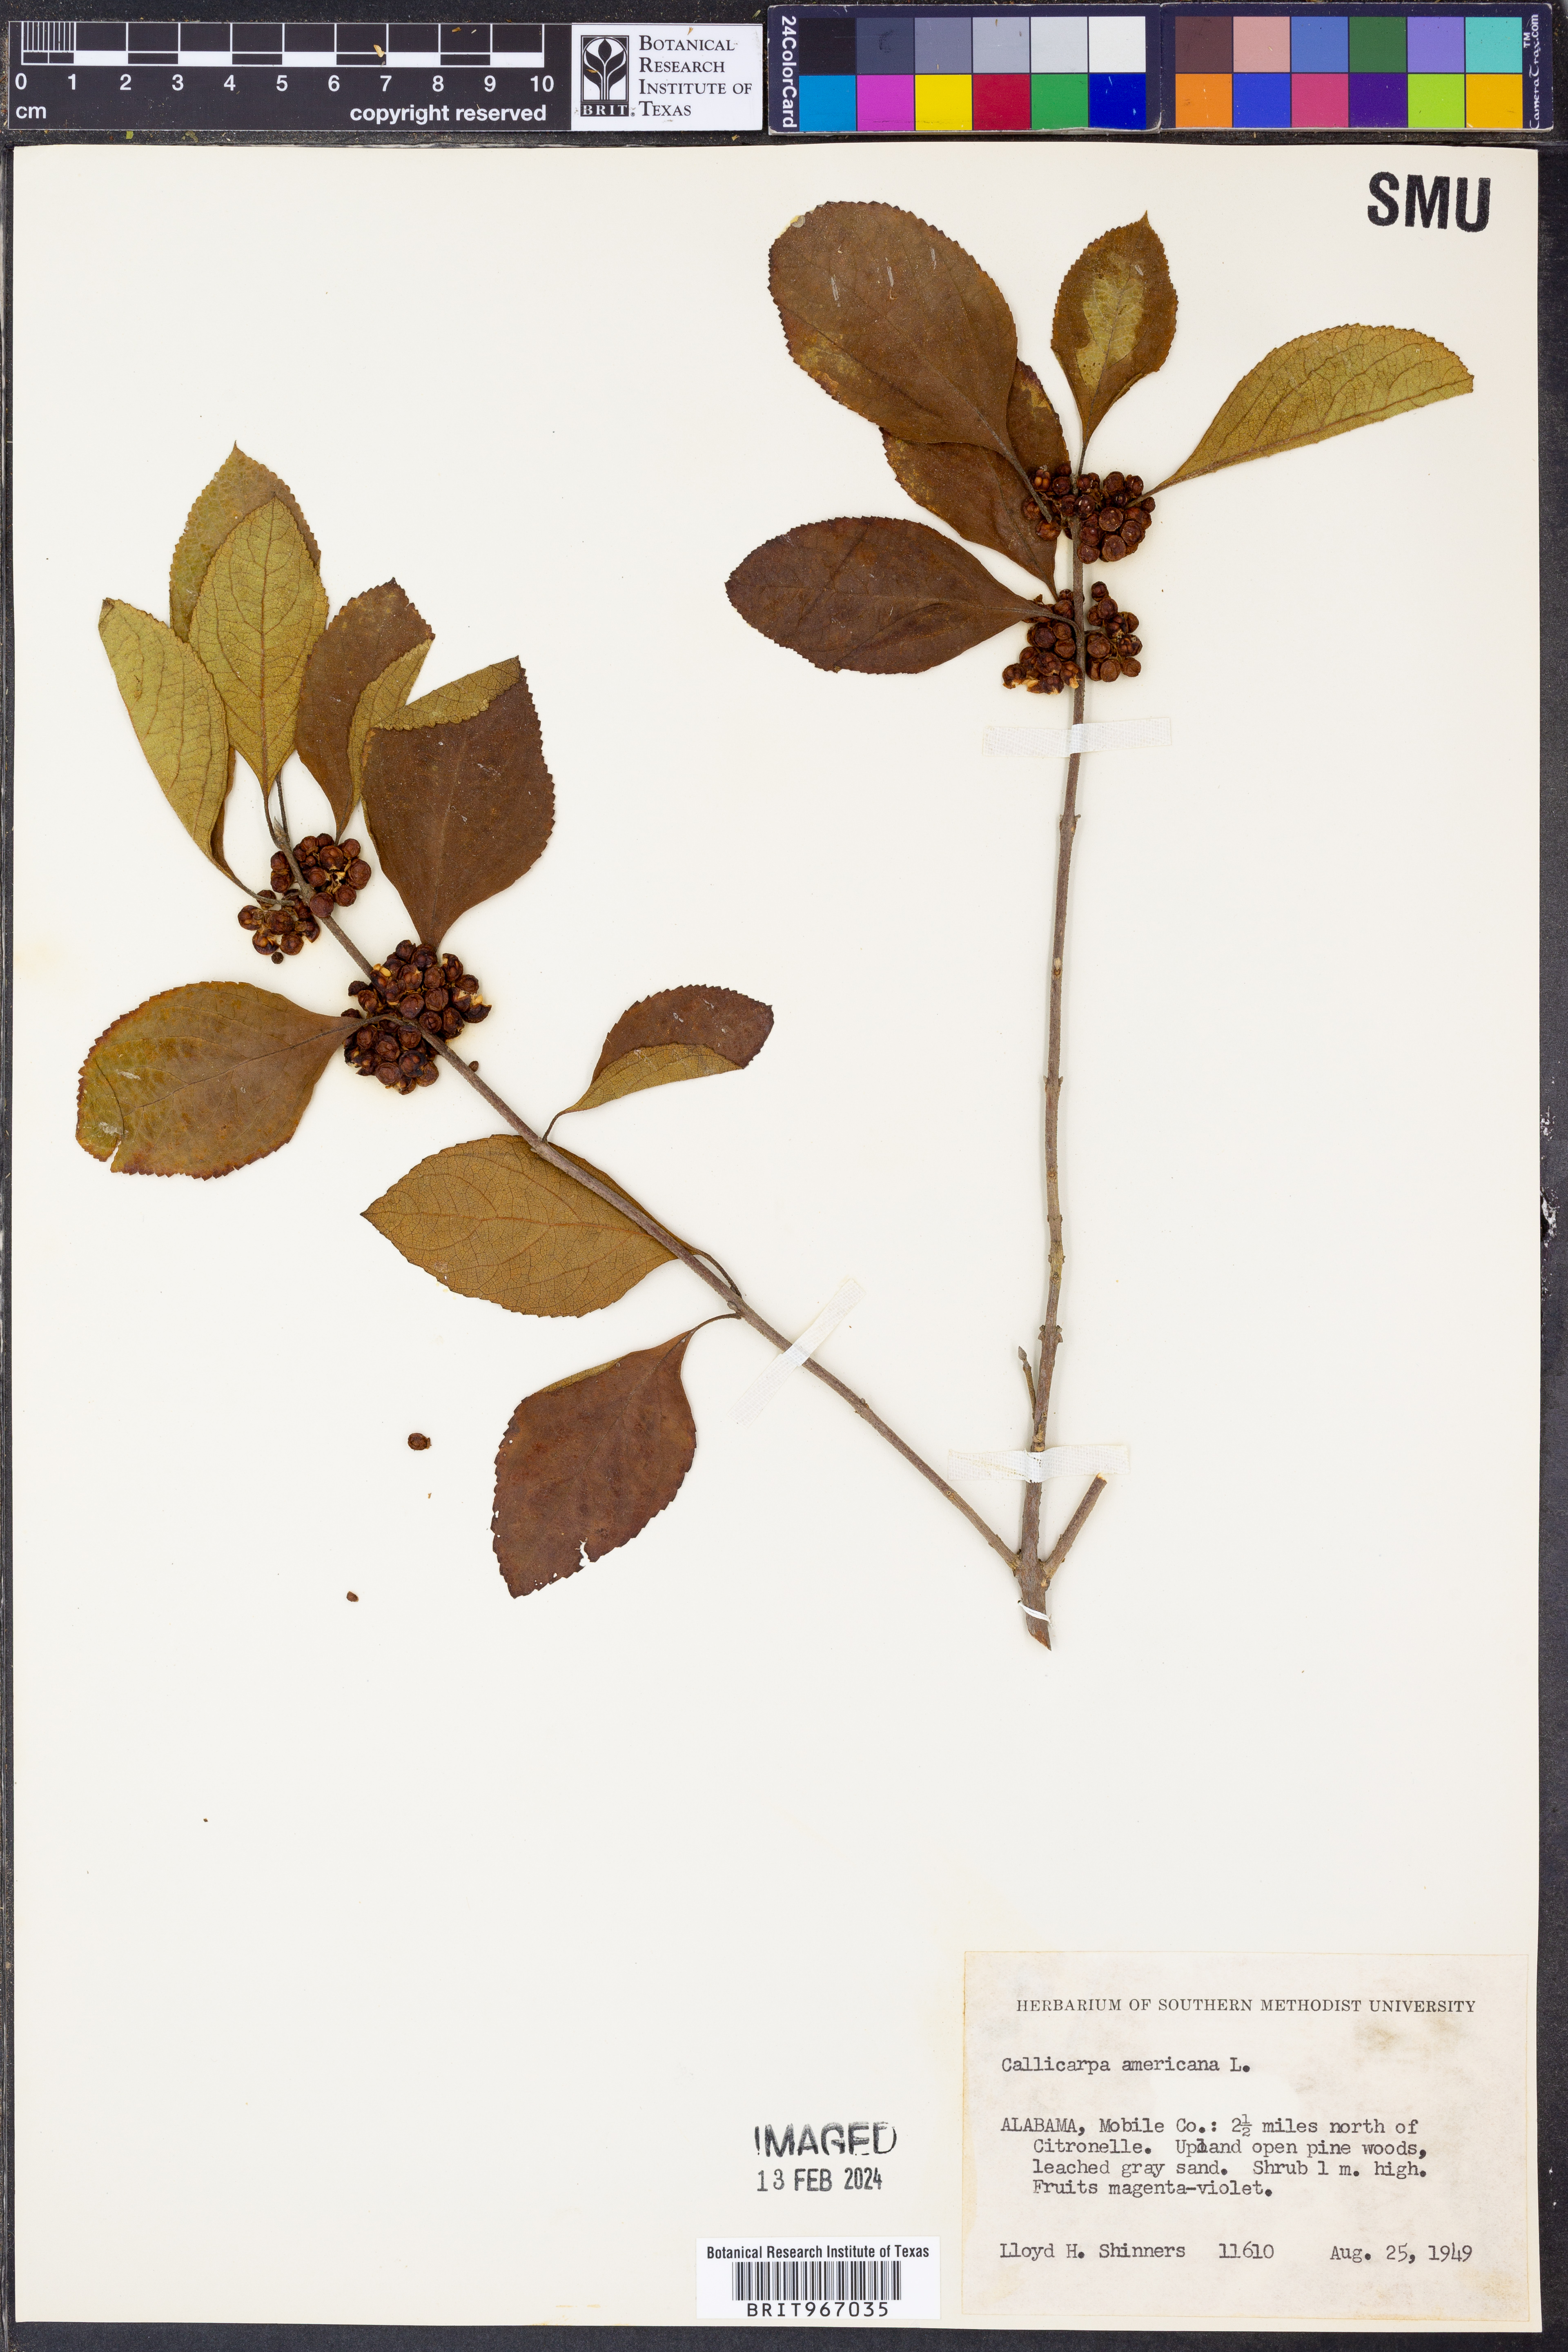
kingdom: Plantae
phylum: Tracheophyta
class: Magnoliopsida
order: Lamiales
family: Lamiaceae
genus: Callicarpa
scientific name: Callicarpa americana
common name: American beautyberry
